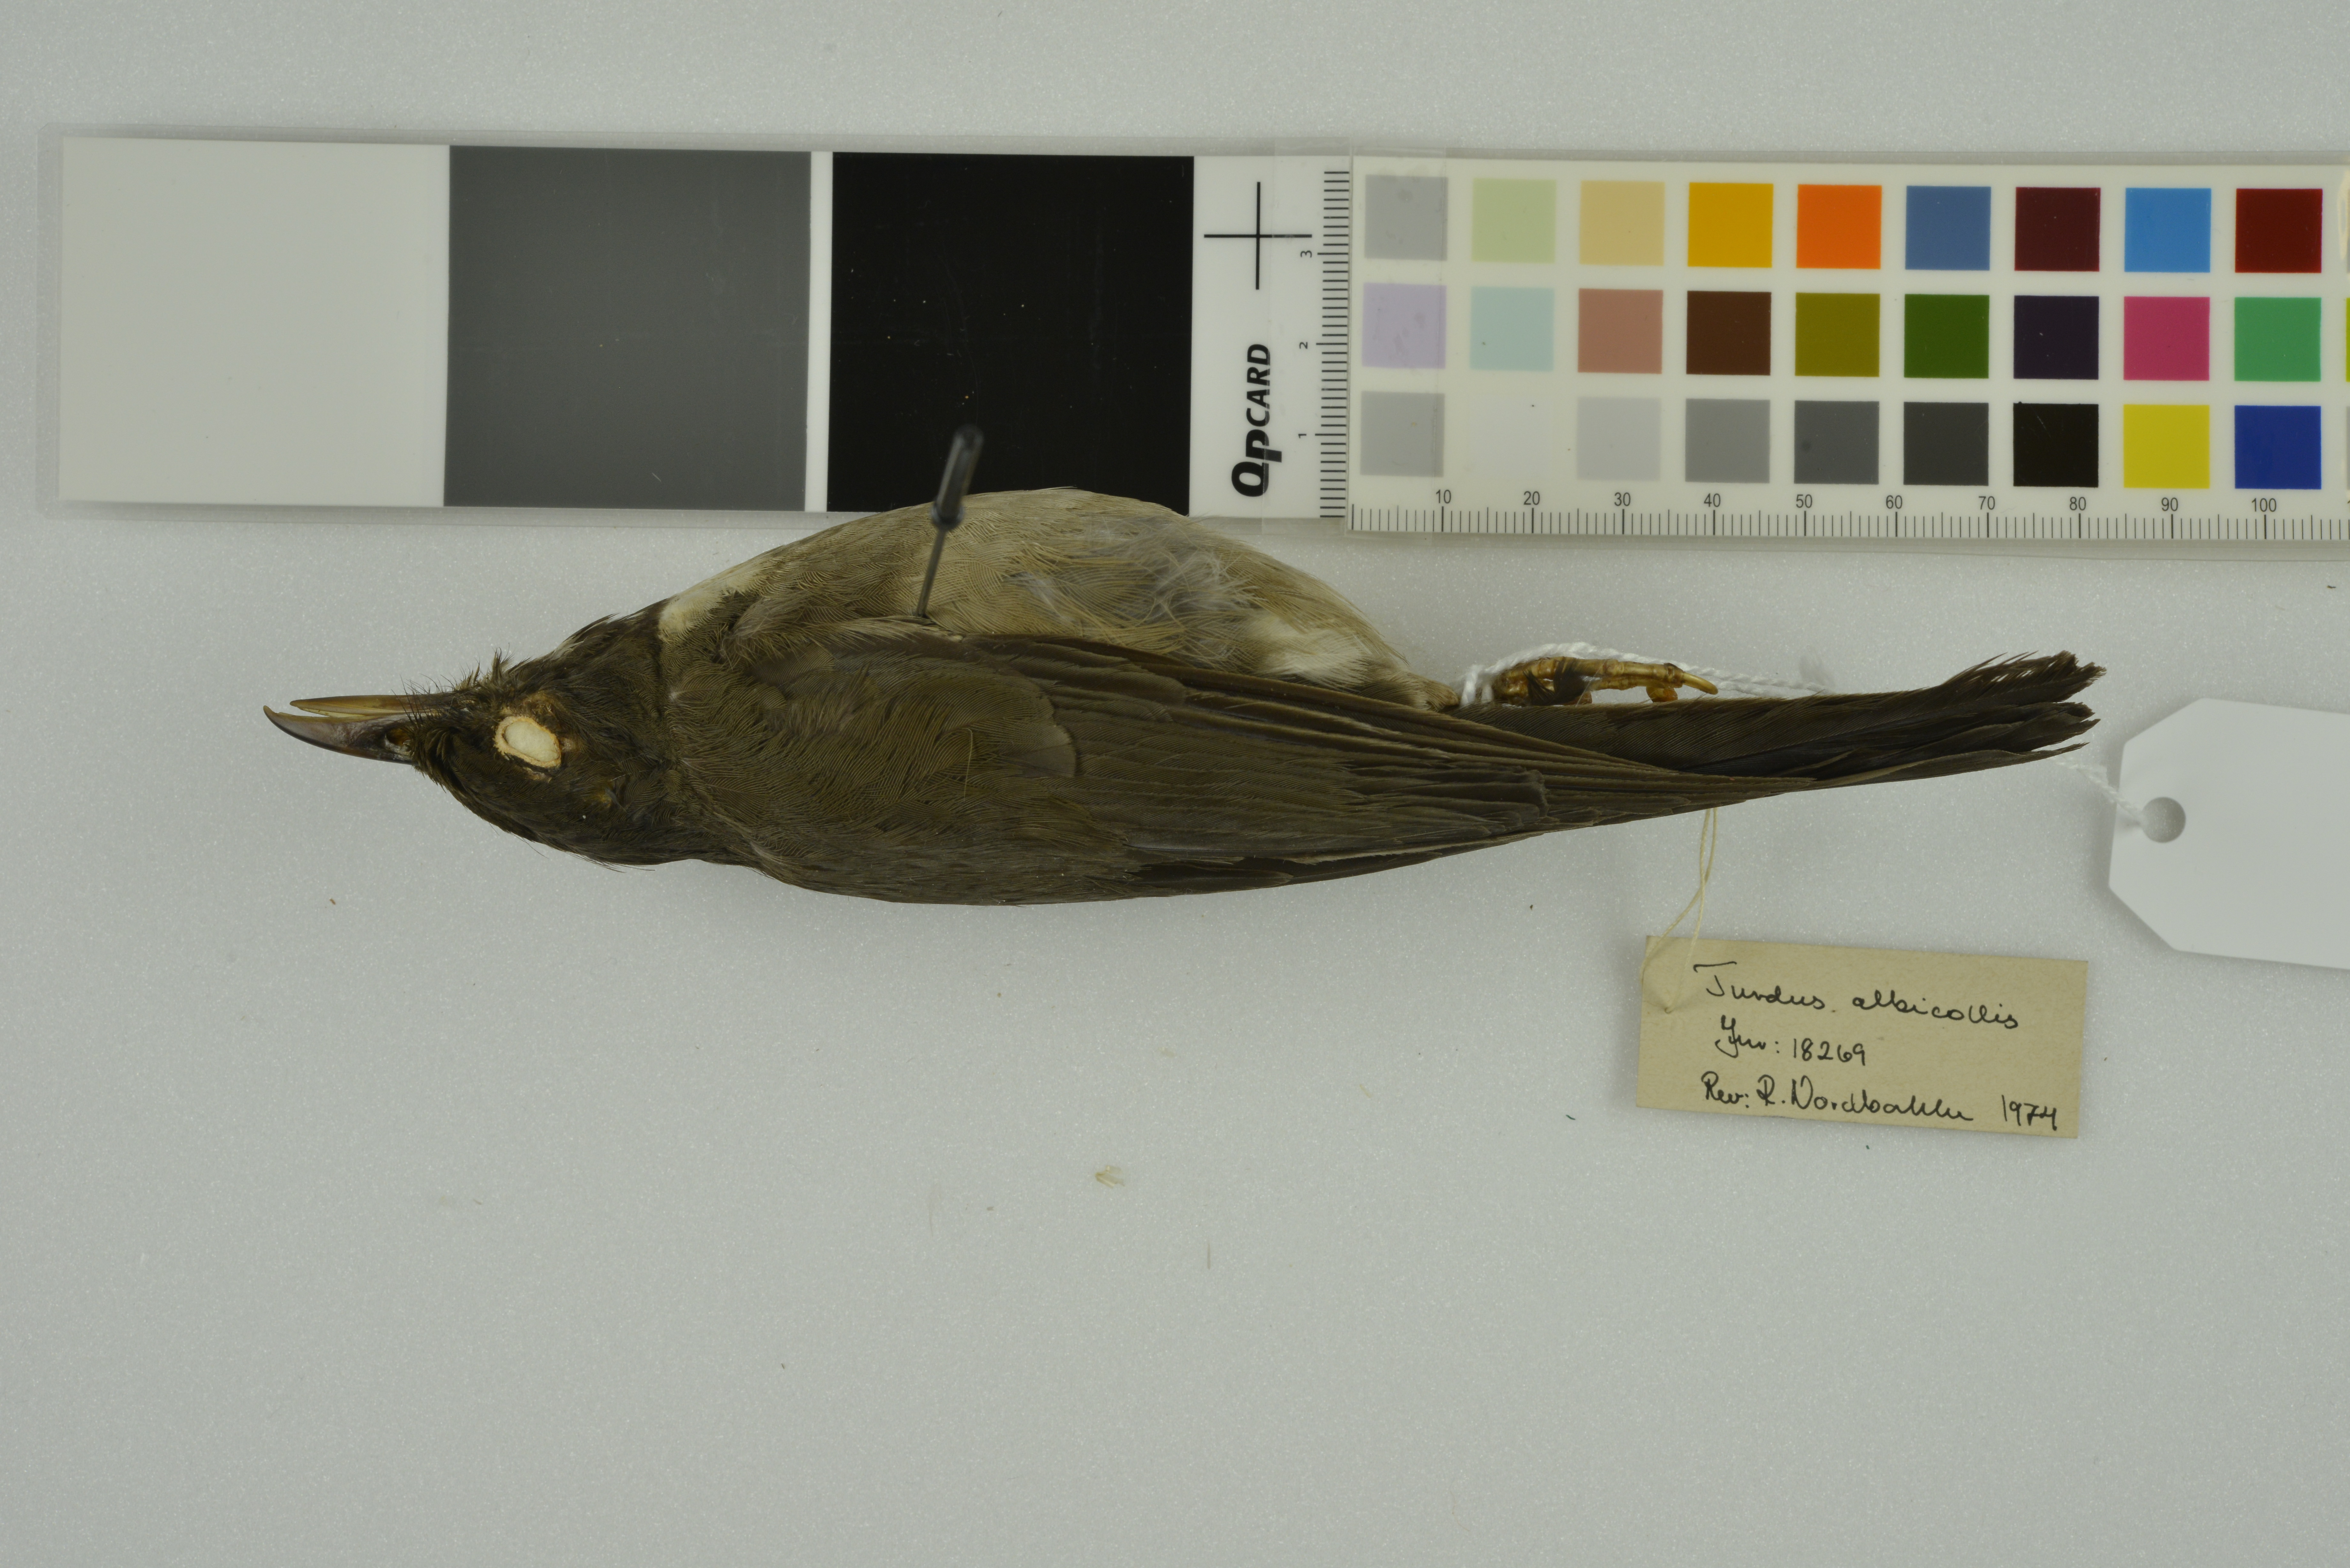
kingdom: Animalia
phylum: Chordata
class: Aves
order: Passeriformes
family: Turdidae
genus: Turdus
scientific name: Turdus albicollis
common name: White-necked thrush
